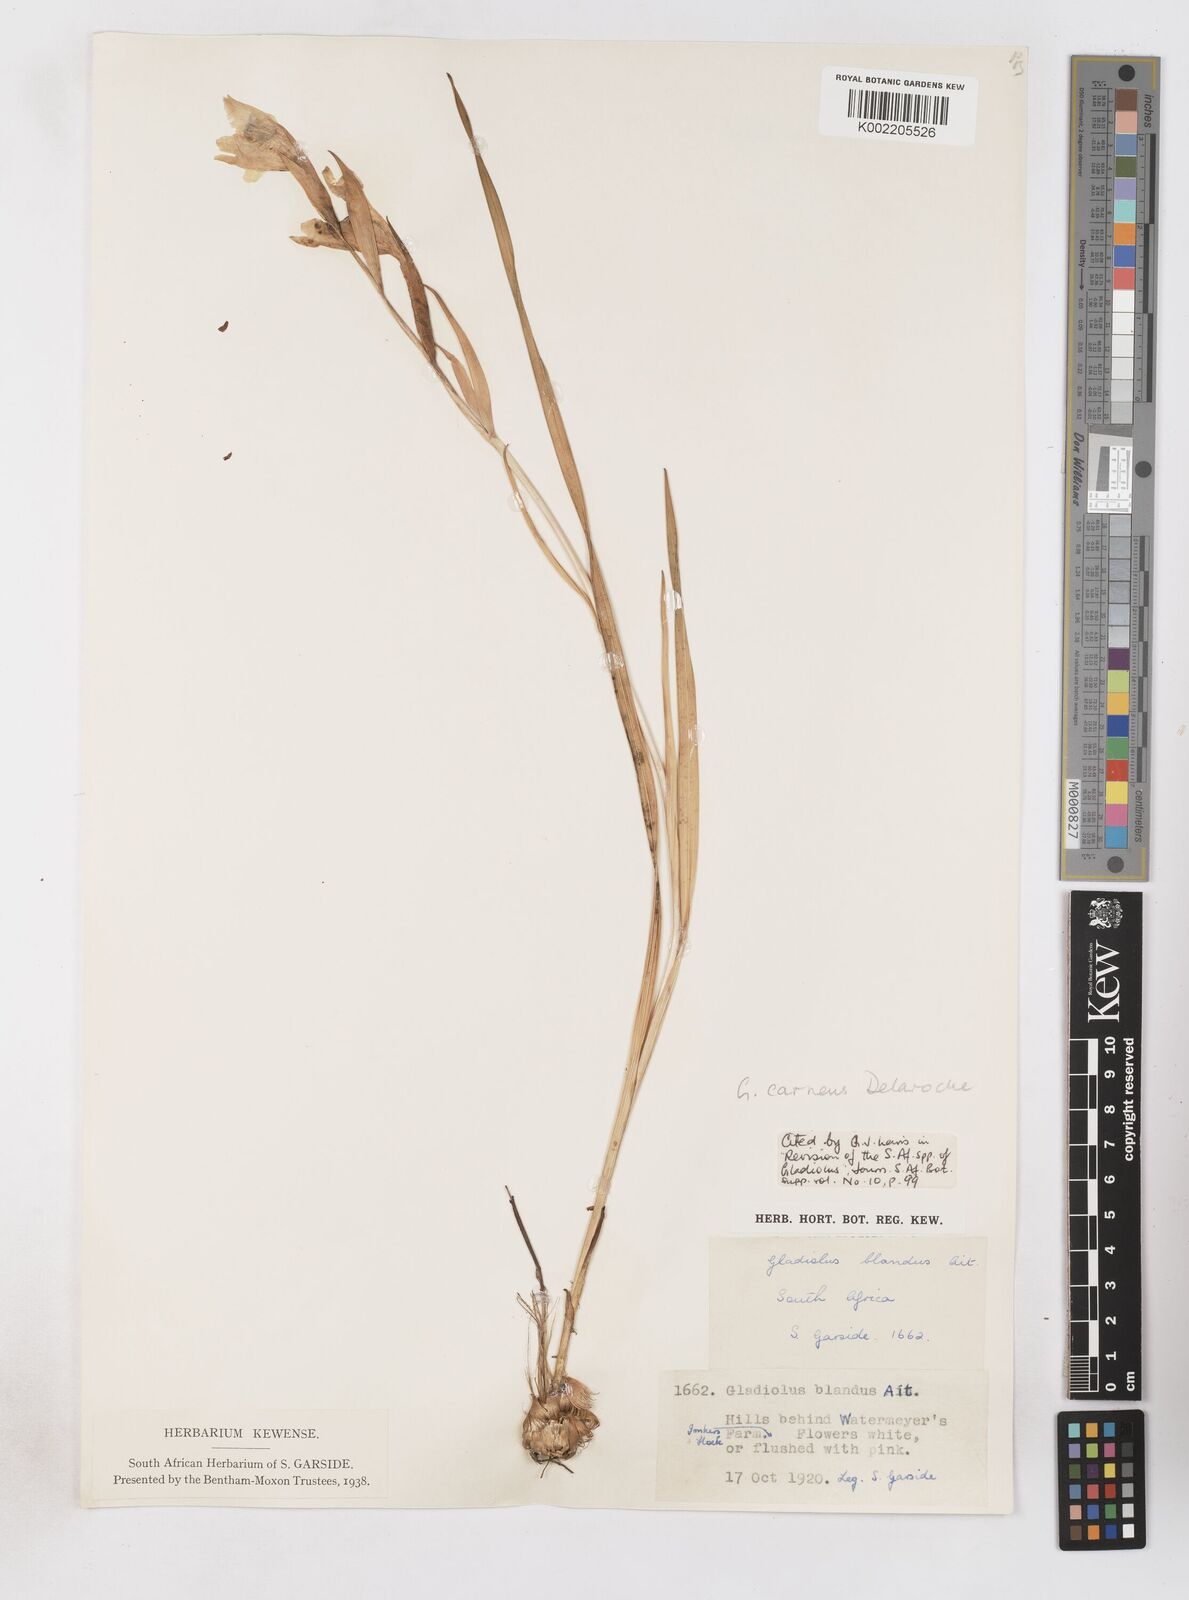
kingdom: Plantae
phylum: Tracheophyta
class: Liliopsida
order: Asparagales
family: Iridaceae
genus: Gladiolus
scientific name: Gladiolus carneus
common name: Painted-lady
